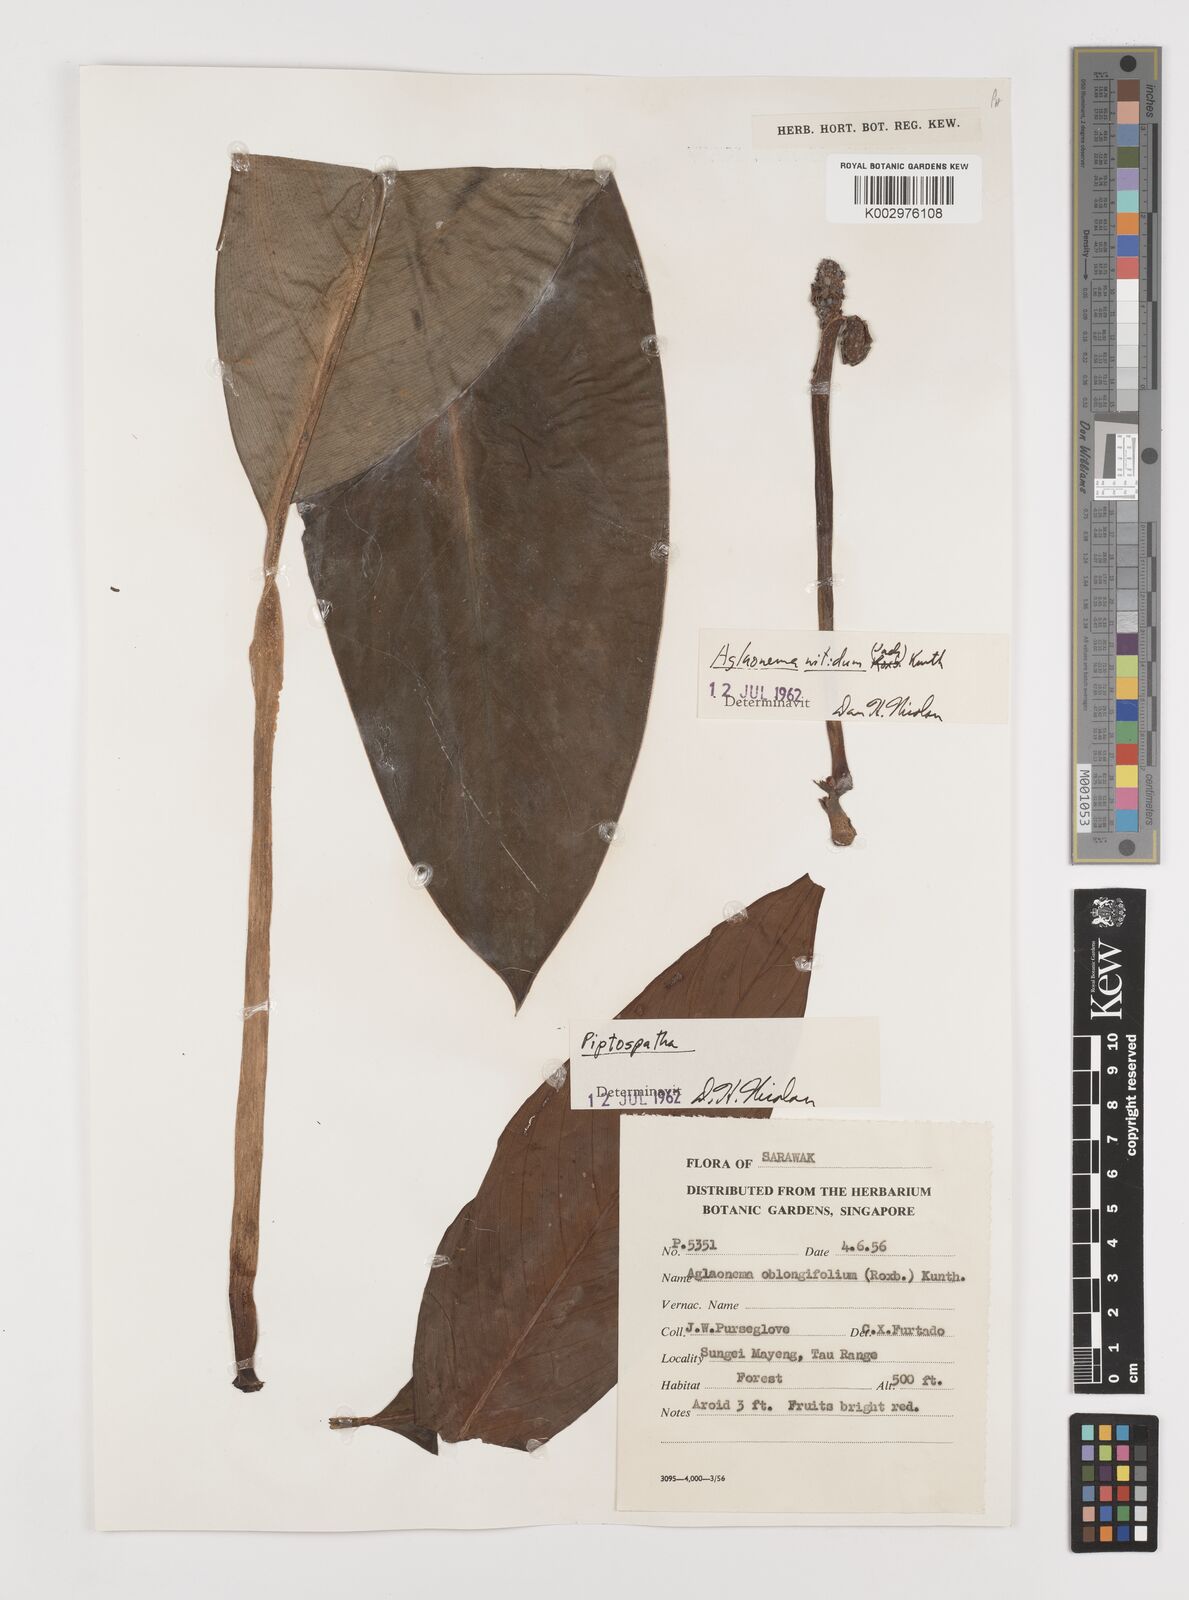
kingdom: Plantae
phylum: Tracheophyta
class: Liliopsida
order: Alismatales
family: Araceae
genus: Aglaonema
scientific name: Aglaonema nitidum
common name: Aglaonema aroid
